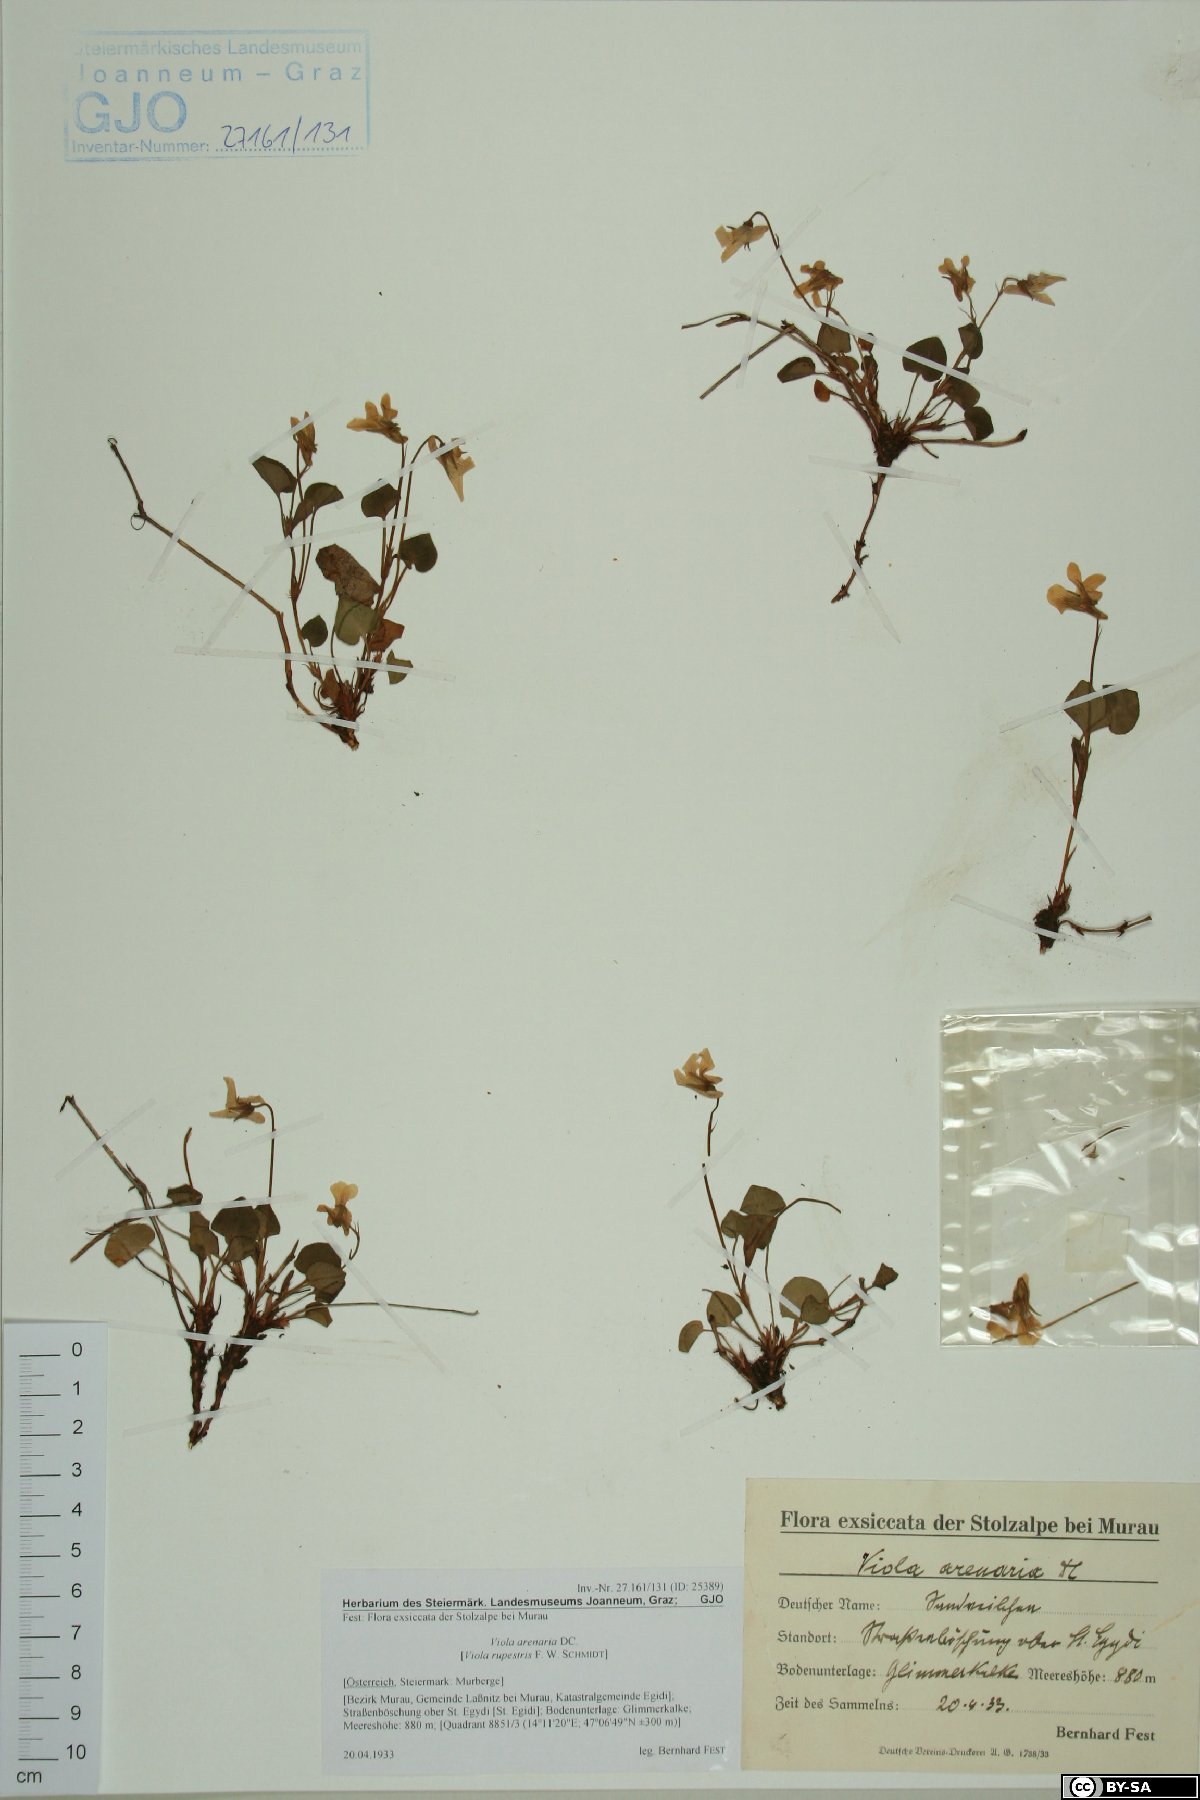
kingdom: Plantae
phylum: Tracheophyta
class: Magnoliopsida
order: Malpighiales
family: Violaceae
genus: Viola
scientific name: Viola rupestris
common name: Teesdale violet
